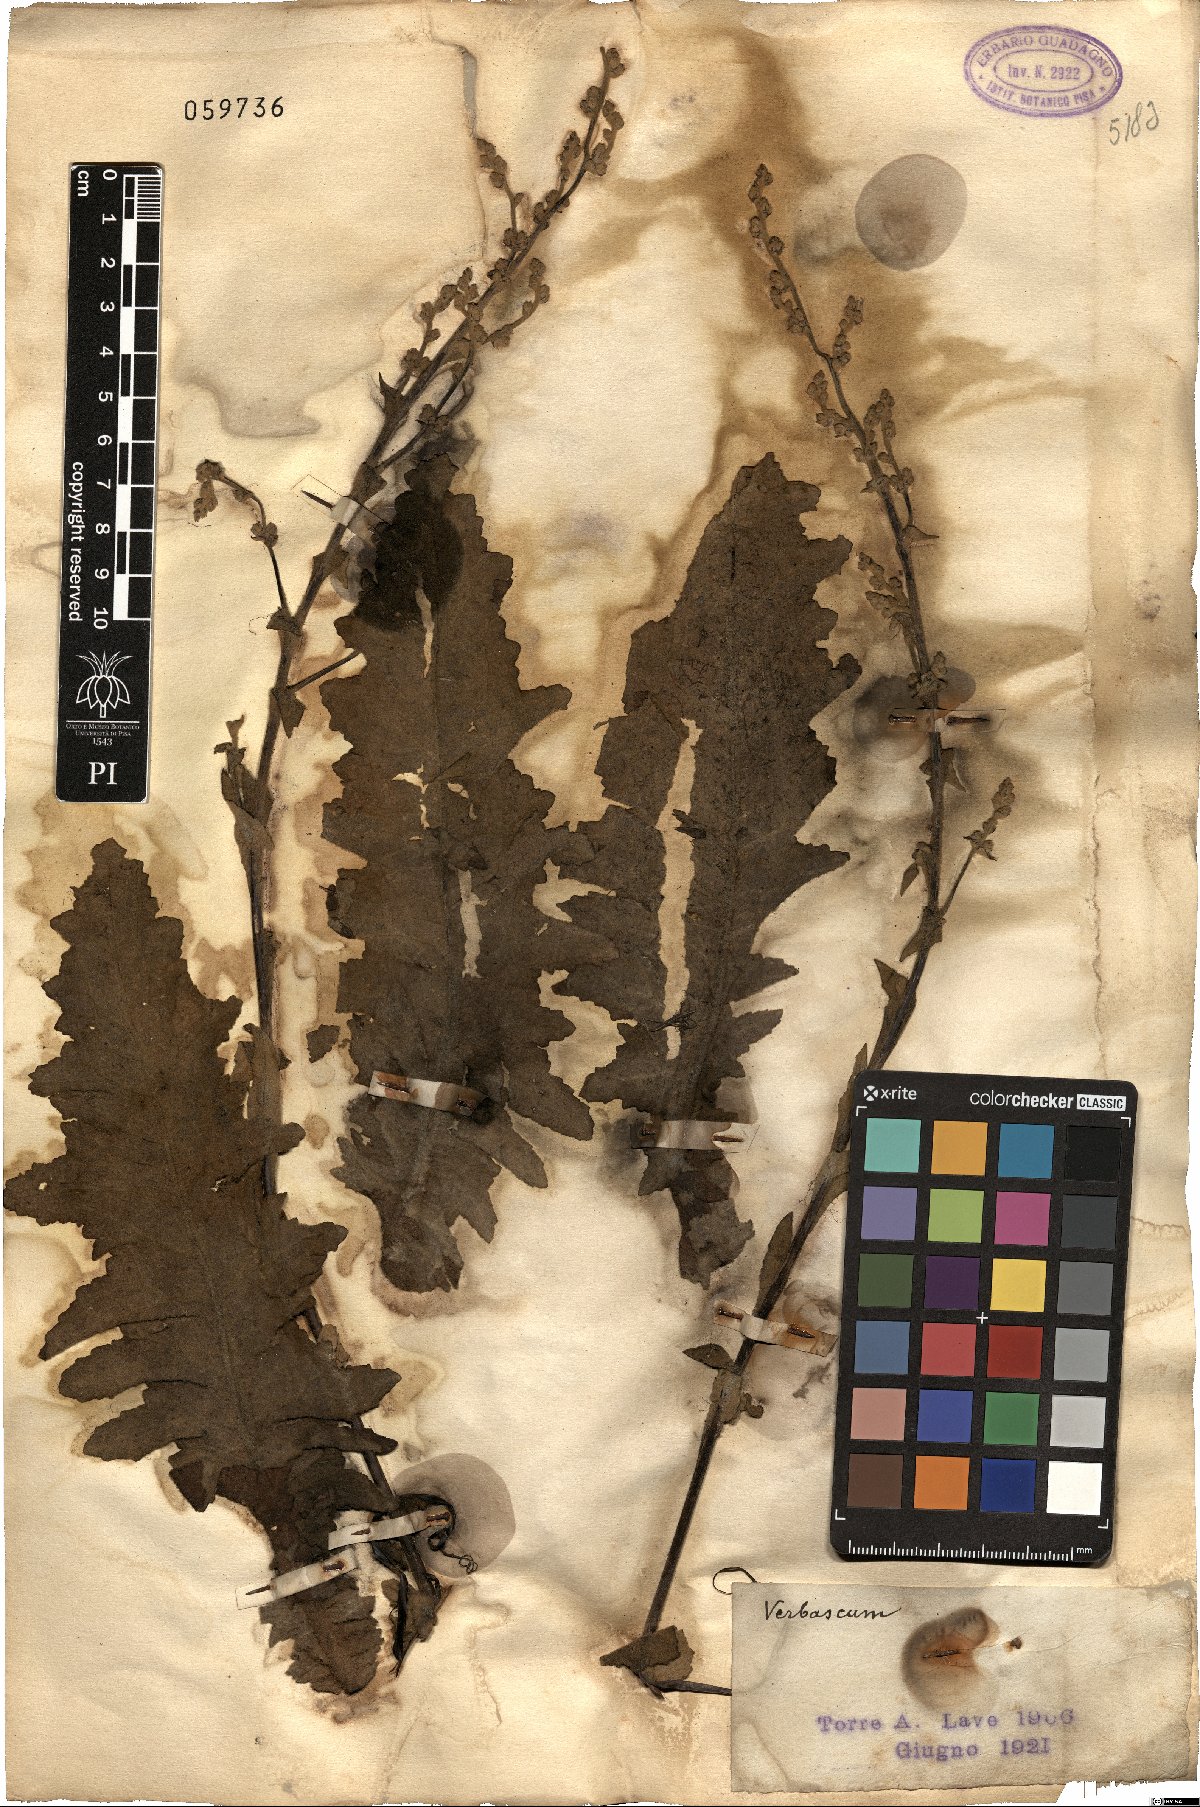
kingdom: Plantae
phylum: Tracheophyta
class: Magnoliopsida
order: Lamiales
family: Scrophulariaceae
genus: Verbascum
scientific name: Verbascum
